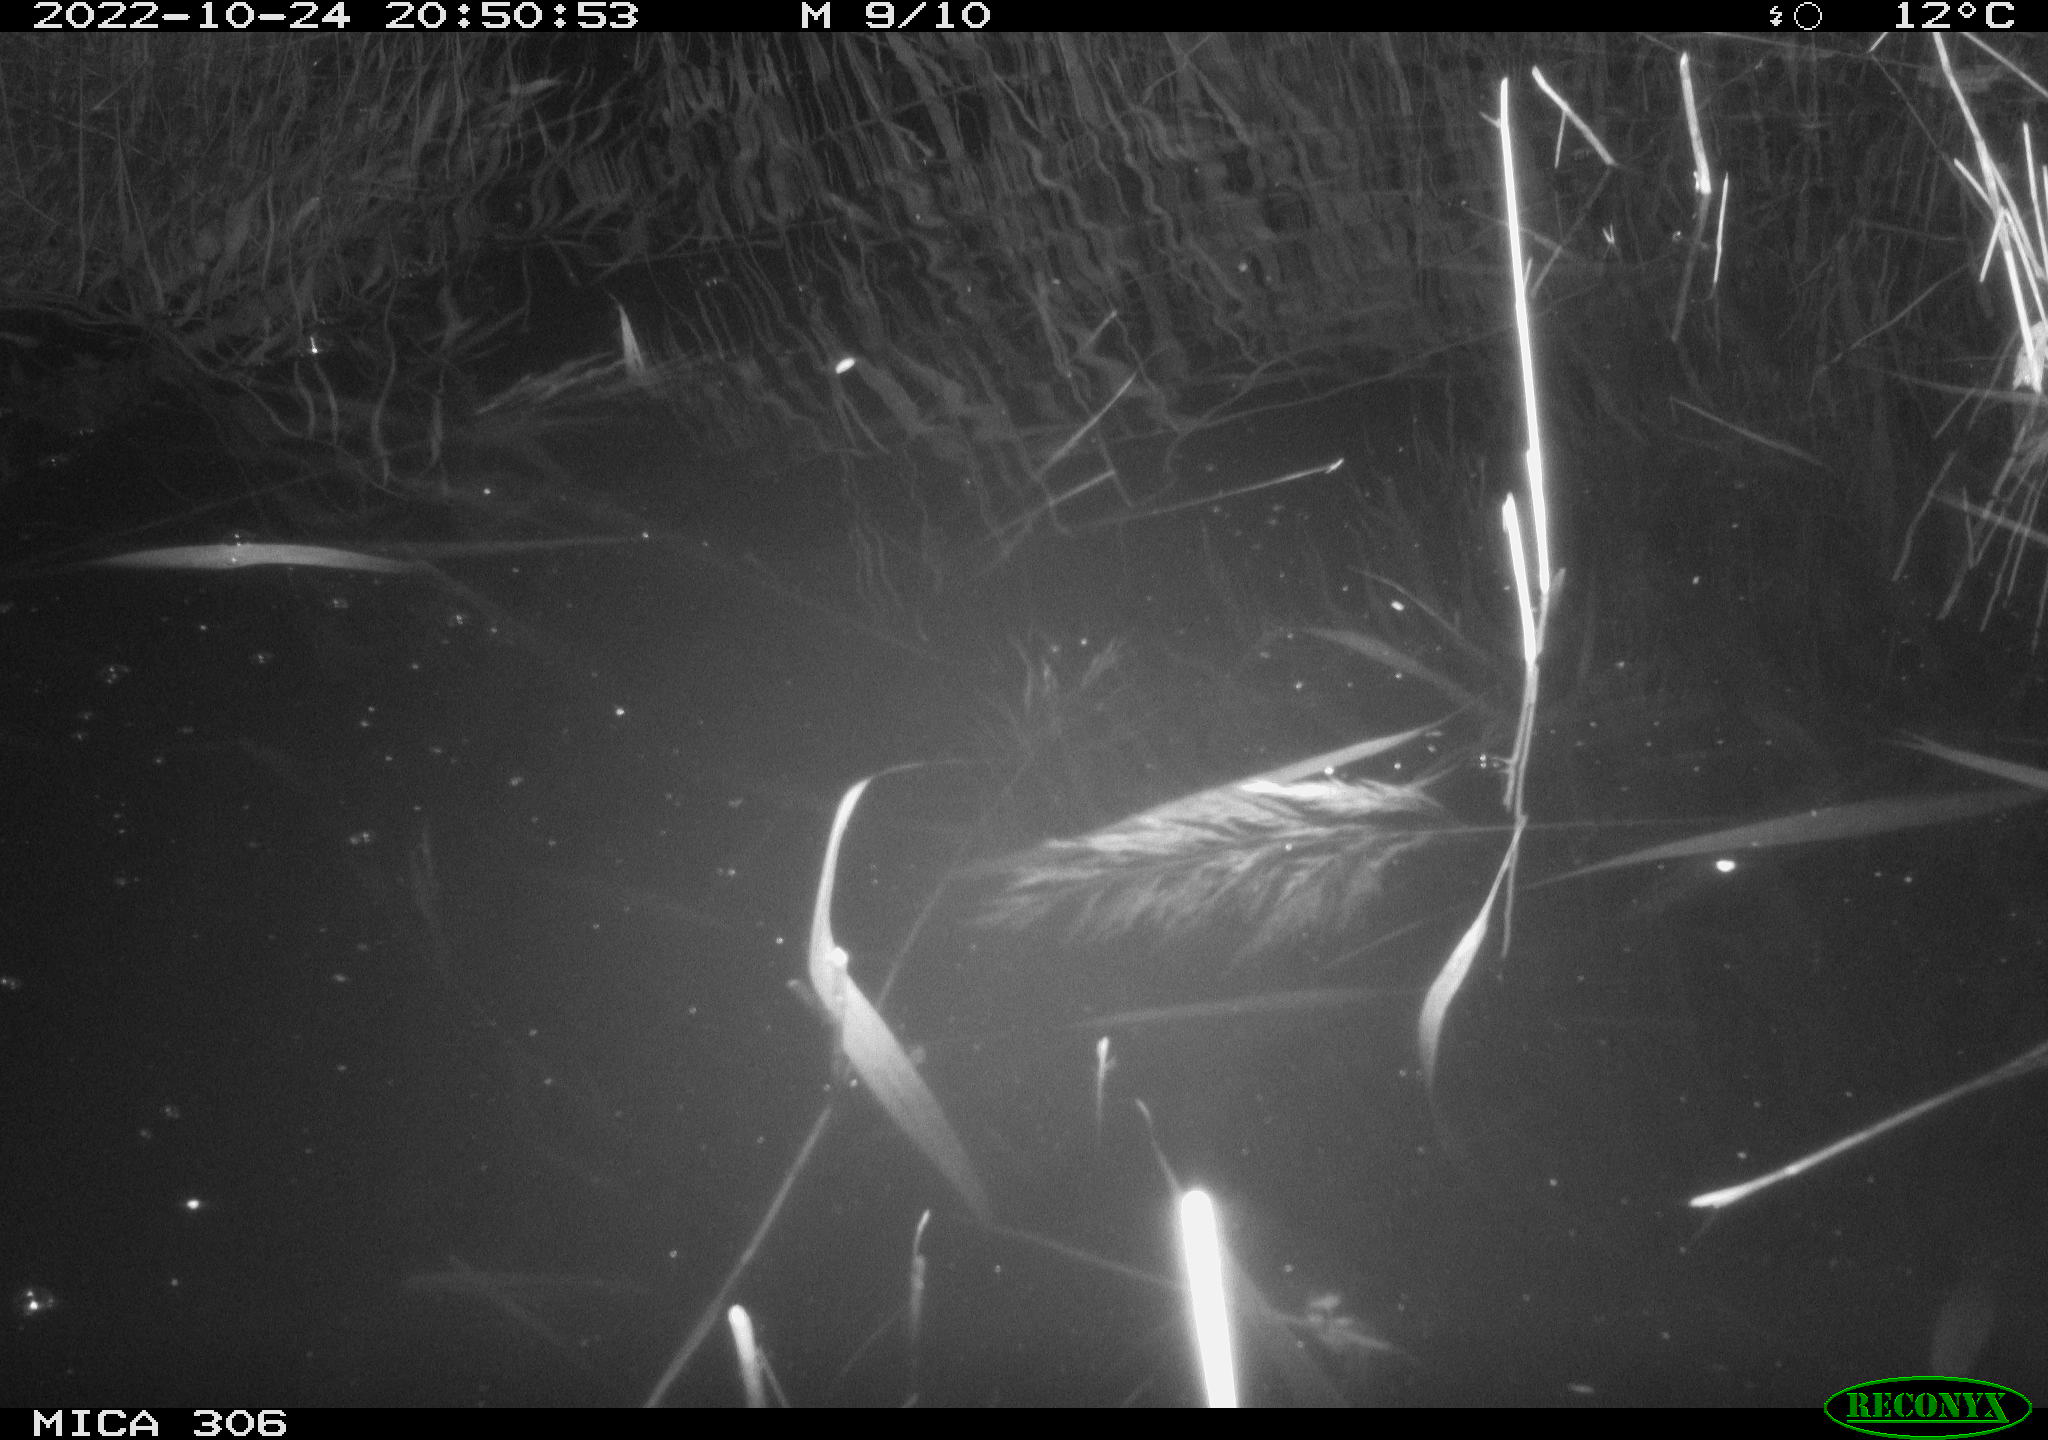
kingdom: Animalia
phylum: Chordata
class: Mammalia
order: Rodentia
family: Cricetidae
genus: Ondatra
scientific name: Ondatra zibethicus
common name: Muskrat
